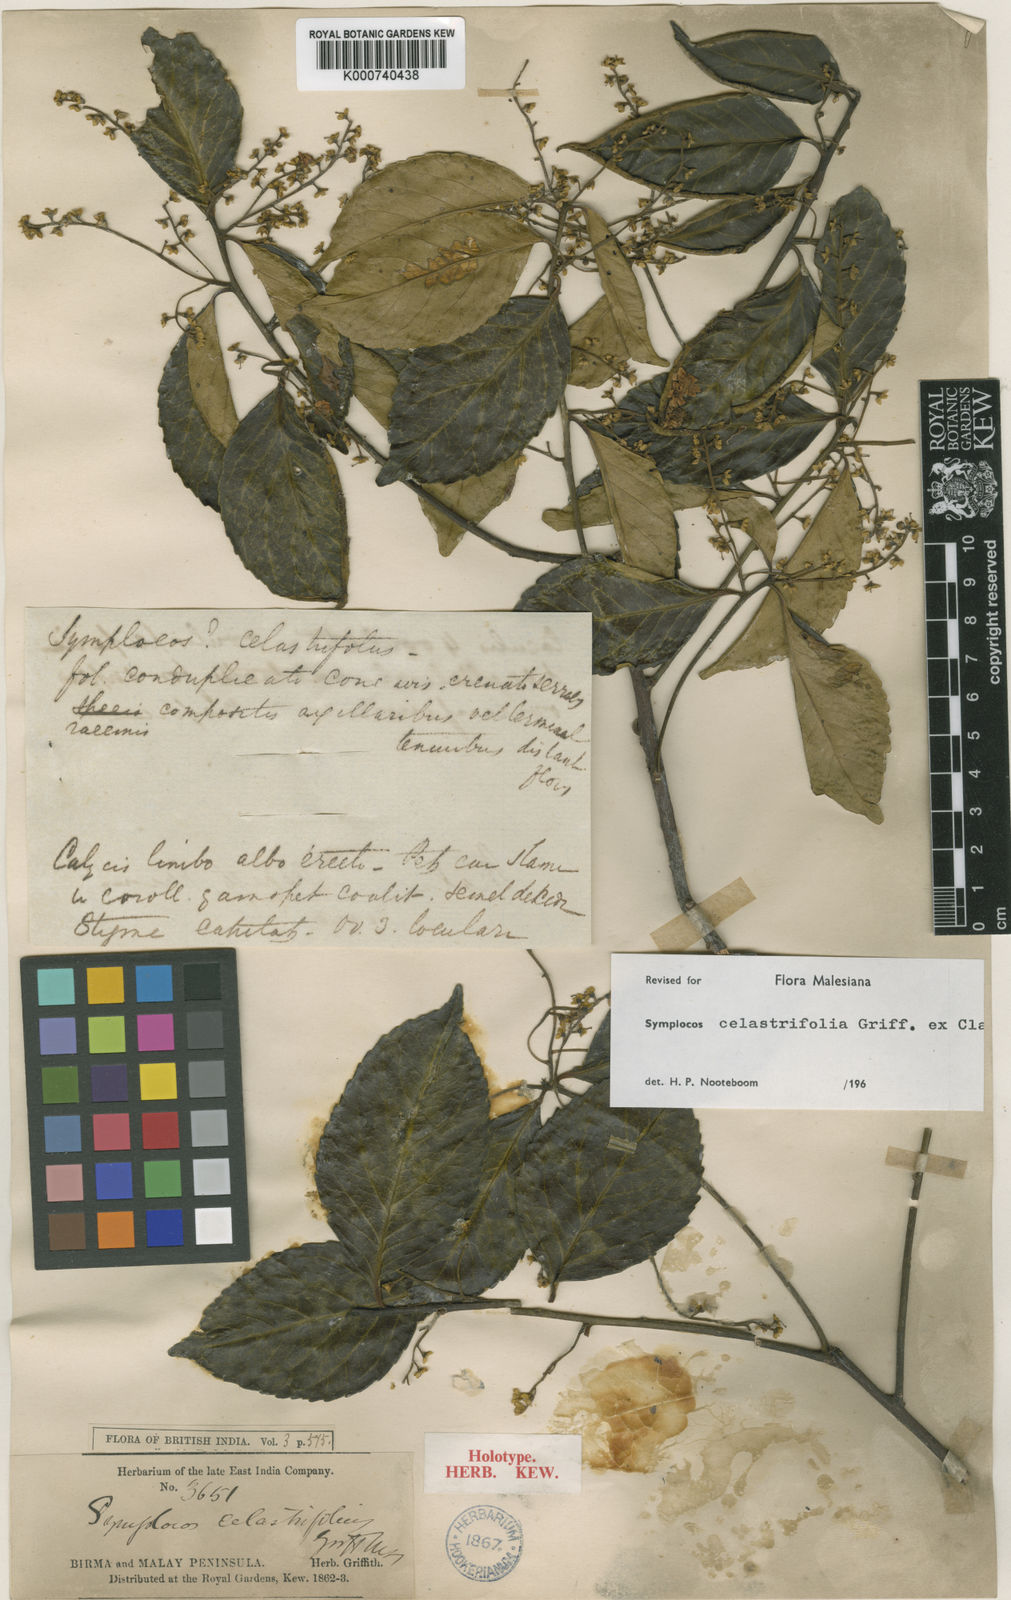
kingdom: Plantae
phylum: Tracheophyta
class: Magnoliopsida
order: Ericales
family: Symplocaceae
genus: Symplocos
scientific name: Symplocos celastrifolia
